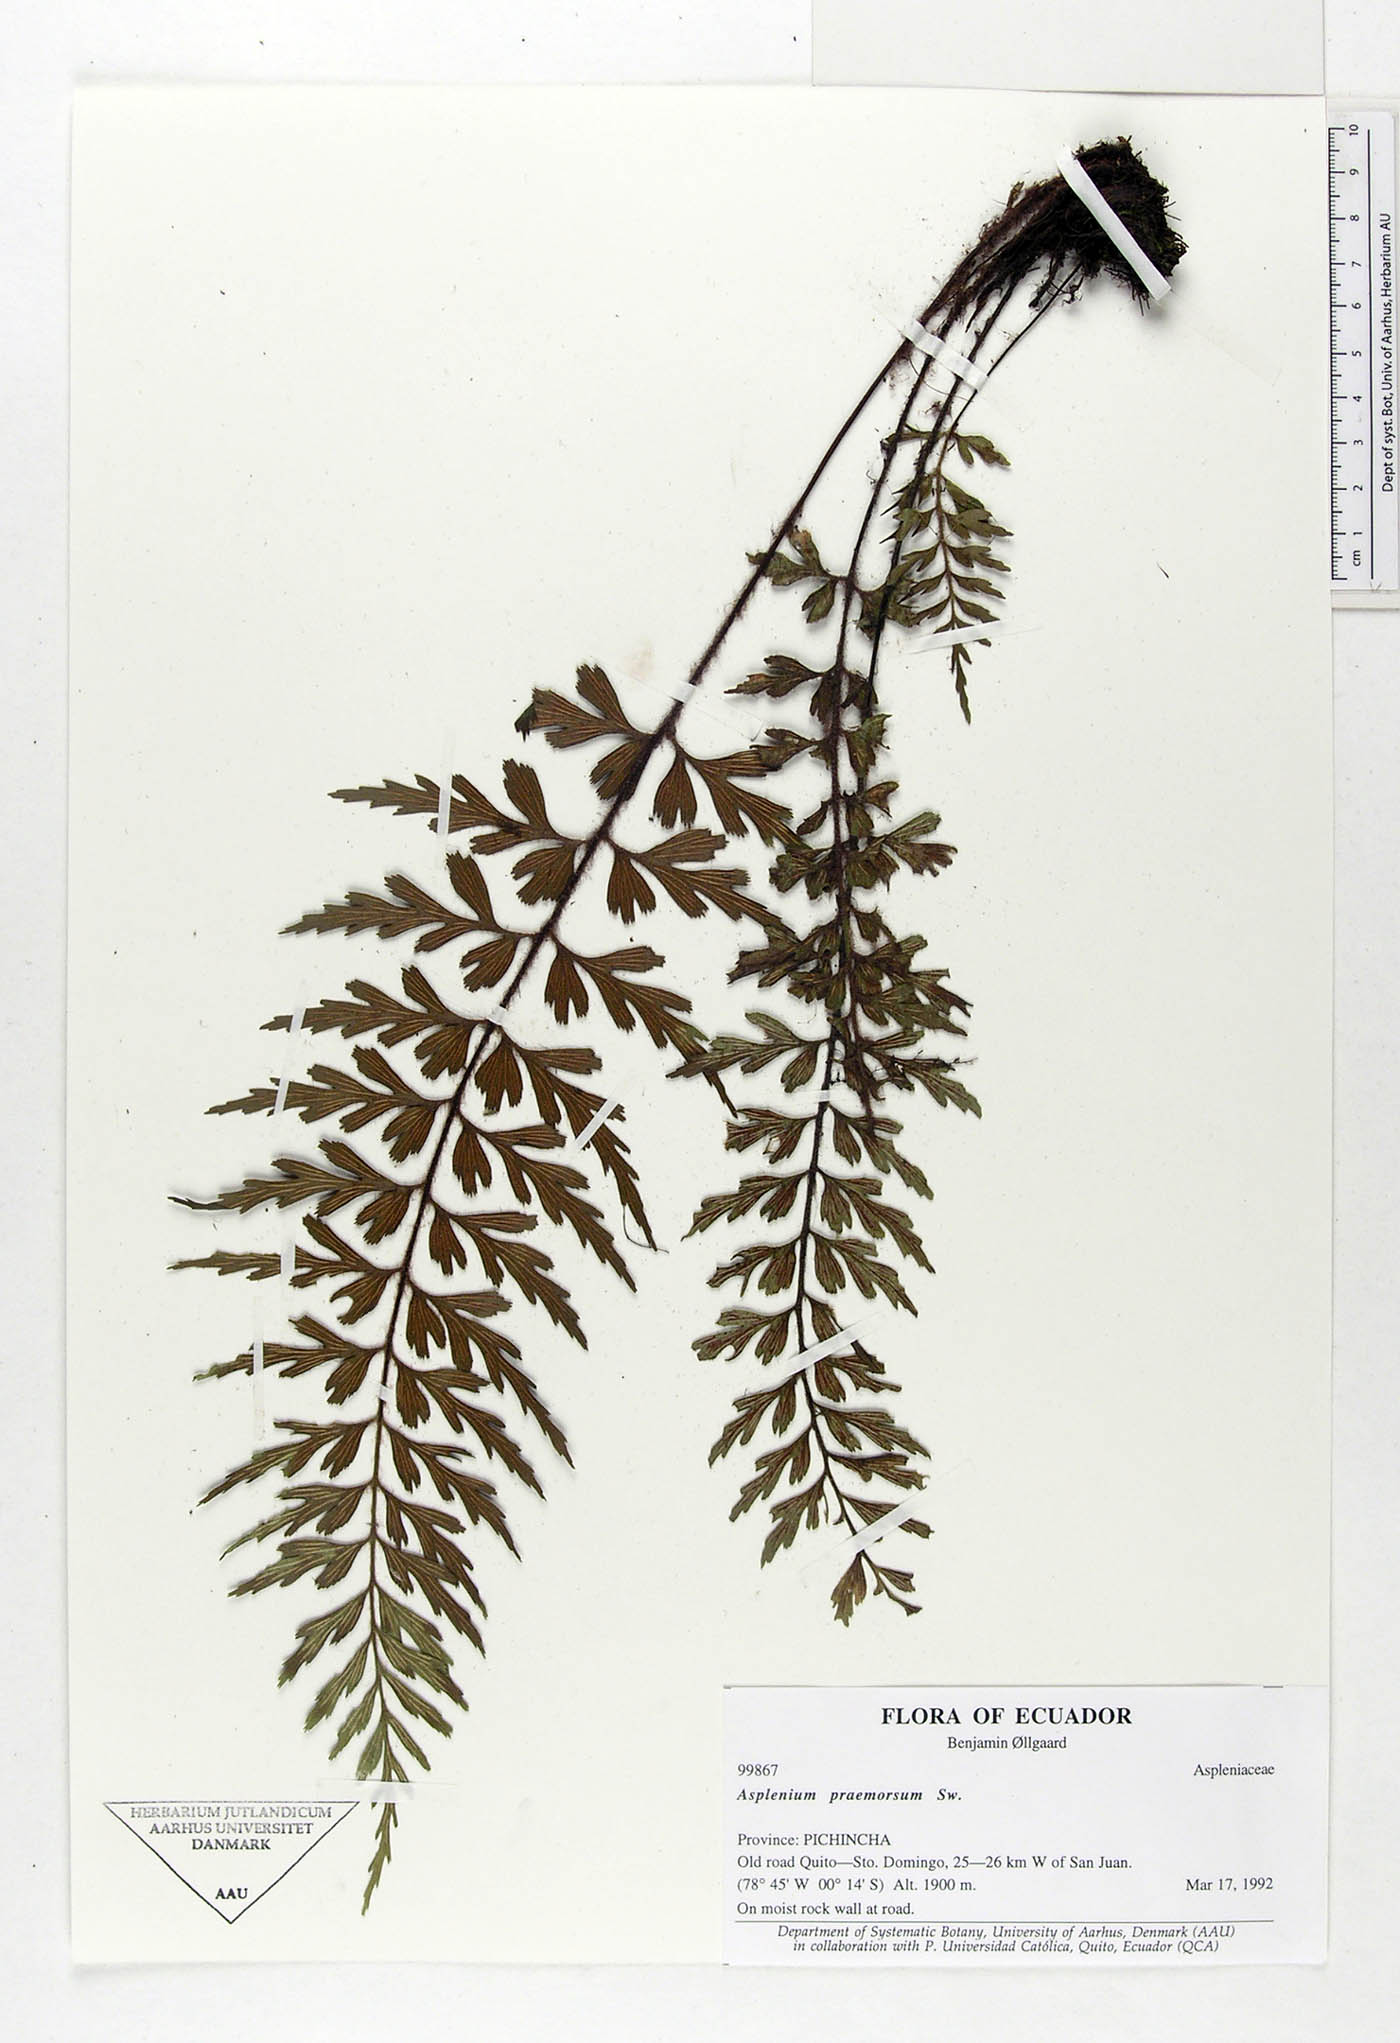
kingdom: Plantae
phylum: Tracheophyta
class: Polypodiopsida
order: Polypodiales
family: Aspleniaceae
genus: Asplenium
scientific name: Asplenium praemorsum
